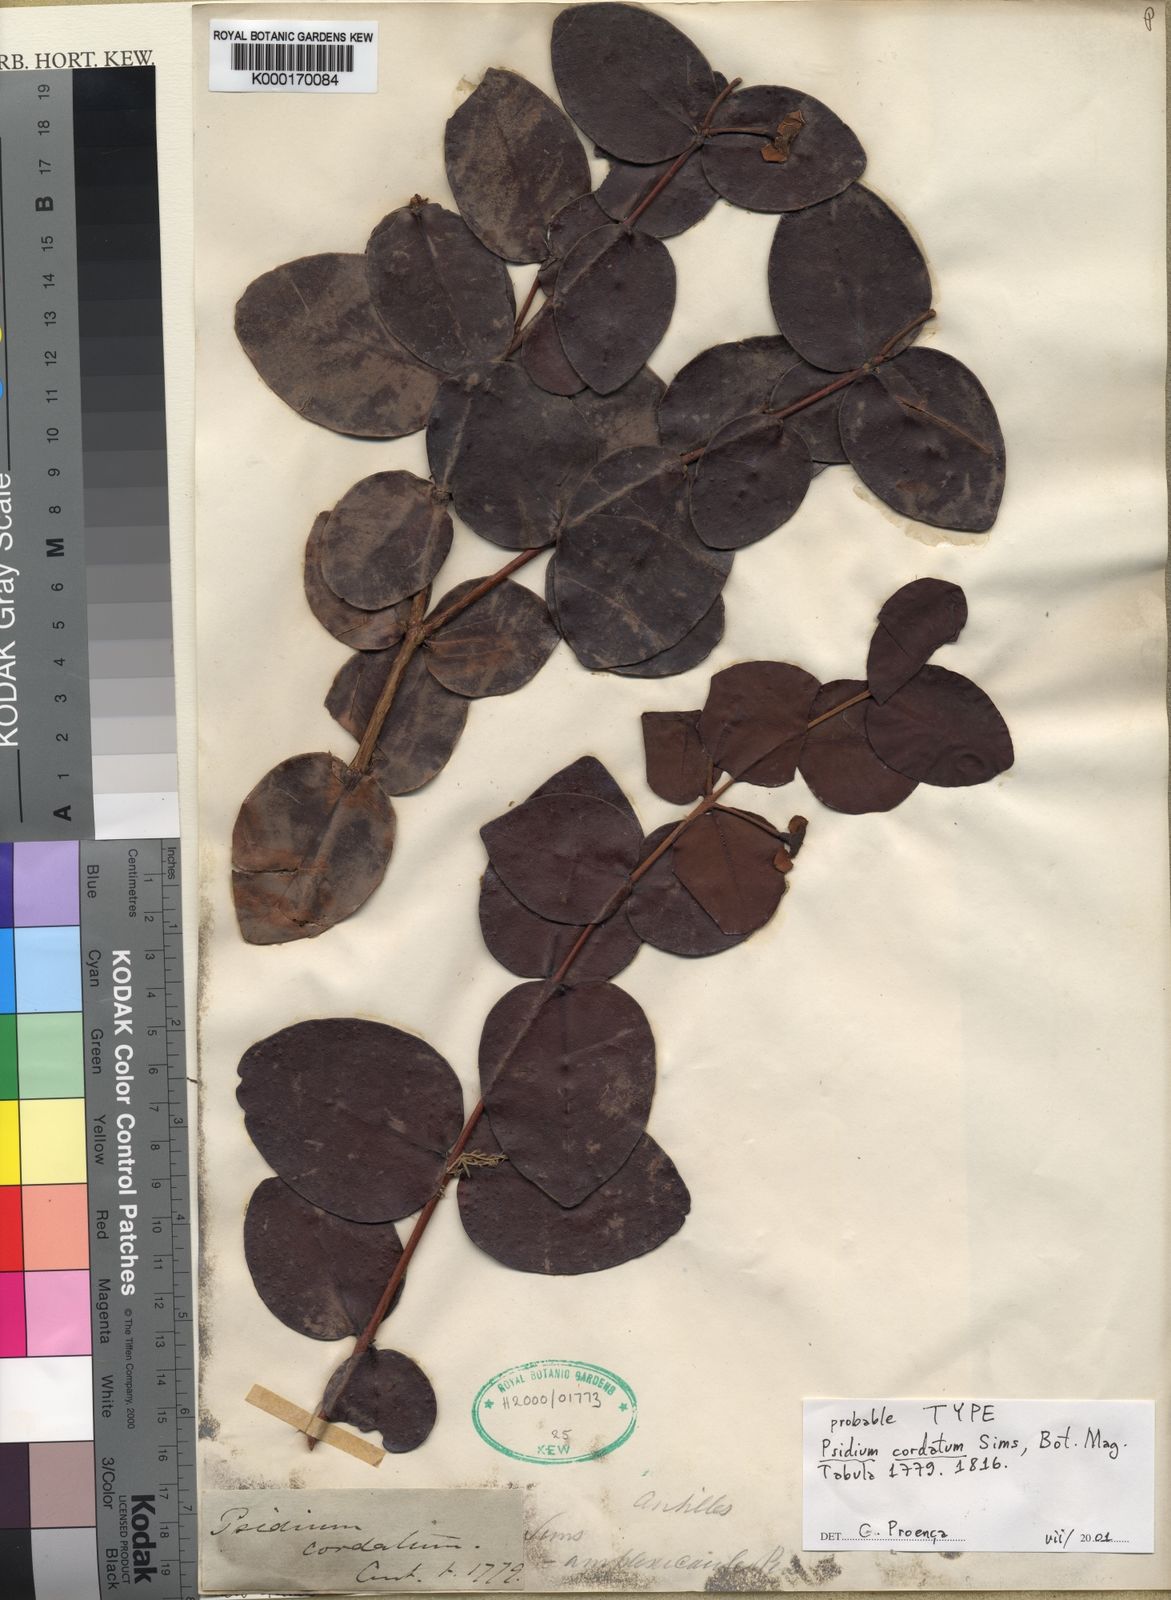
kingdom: Plantae
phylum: Tracheophyta
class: Magnoliopsida
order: Myrtales
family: Myrtaceae
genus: Psidium
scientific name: Psidium amplexicaule
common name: Mountain guava
